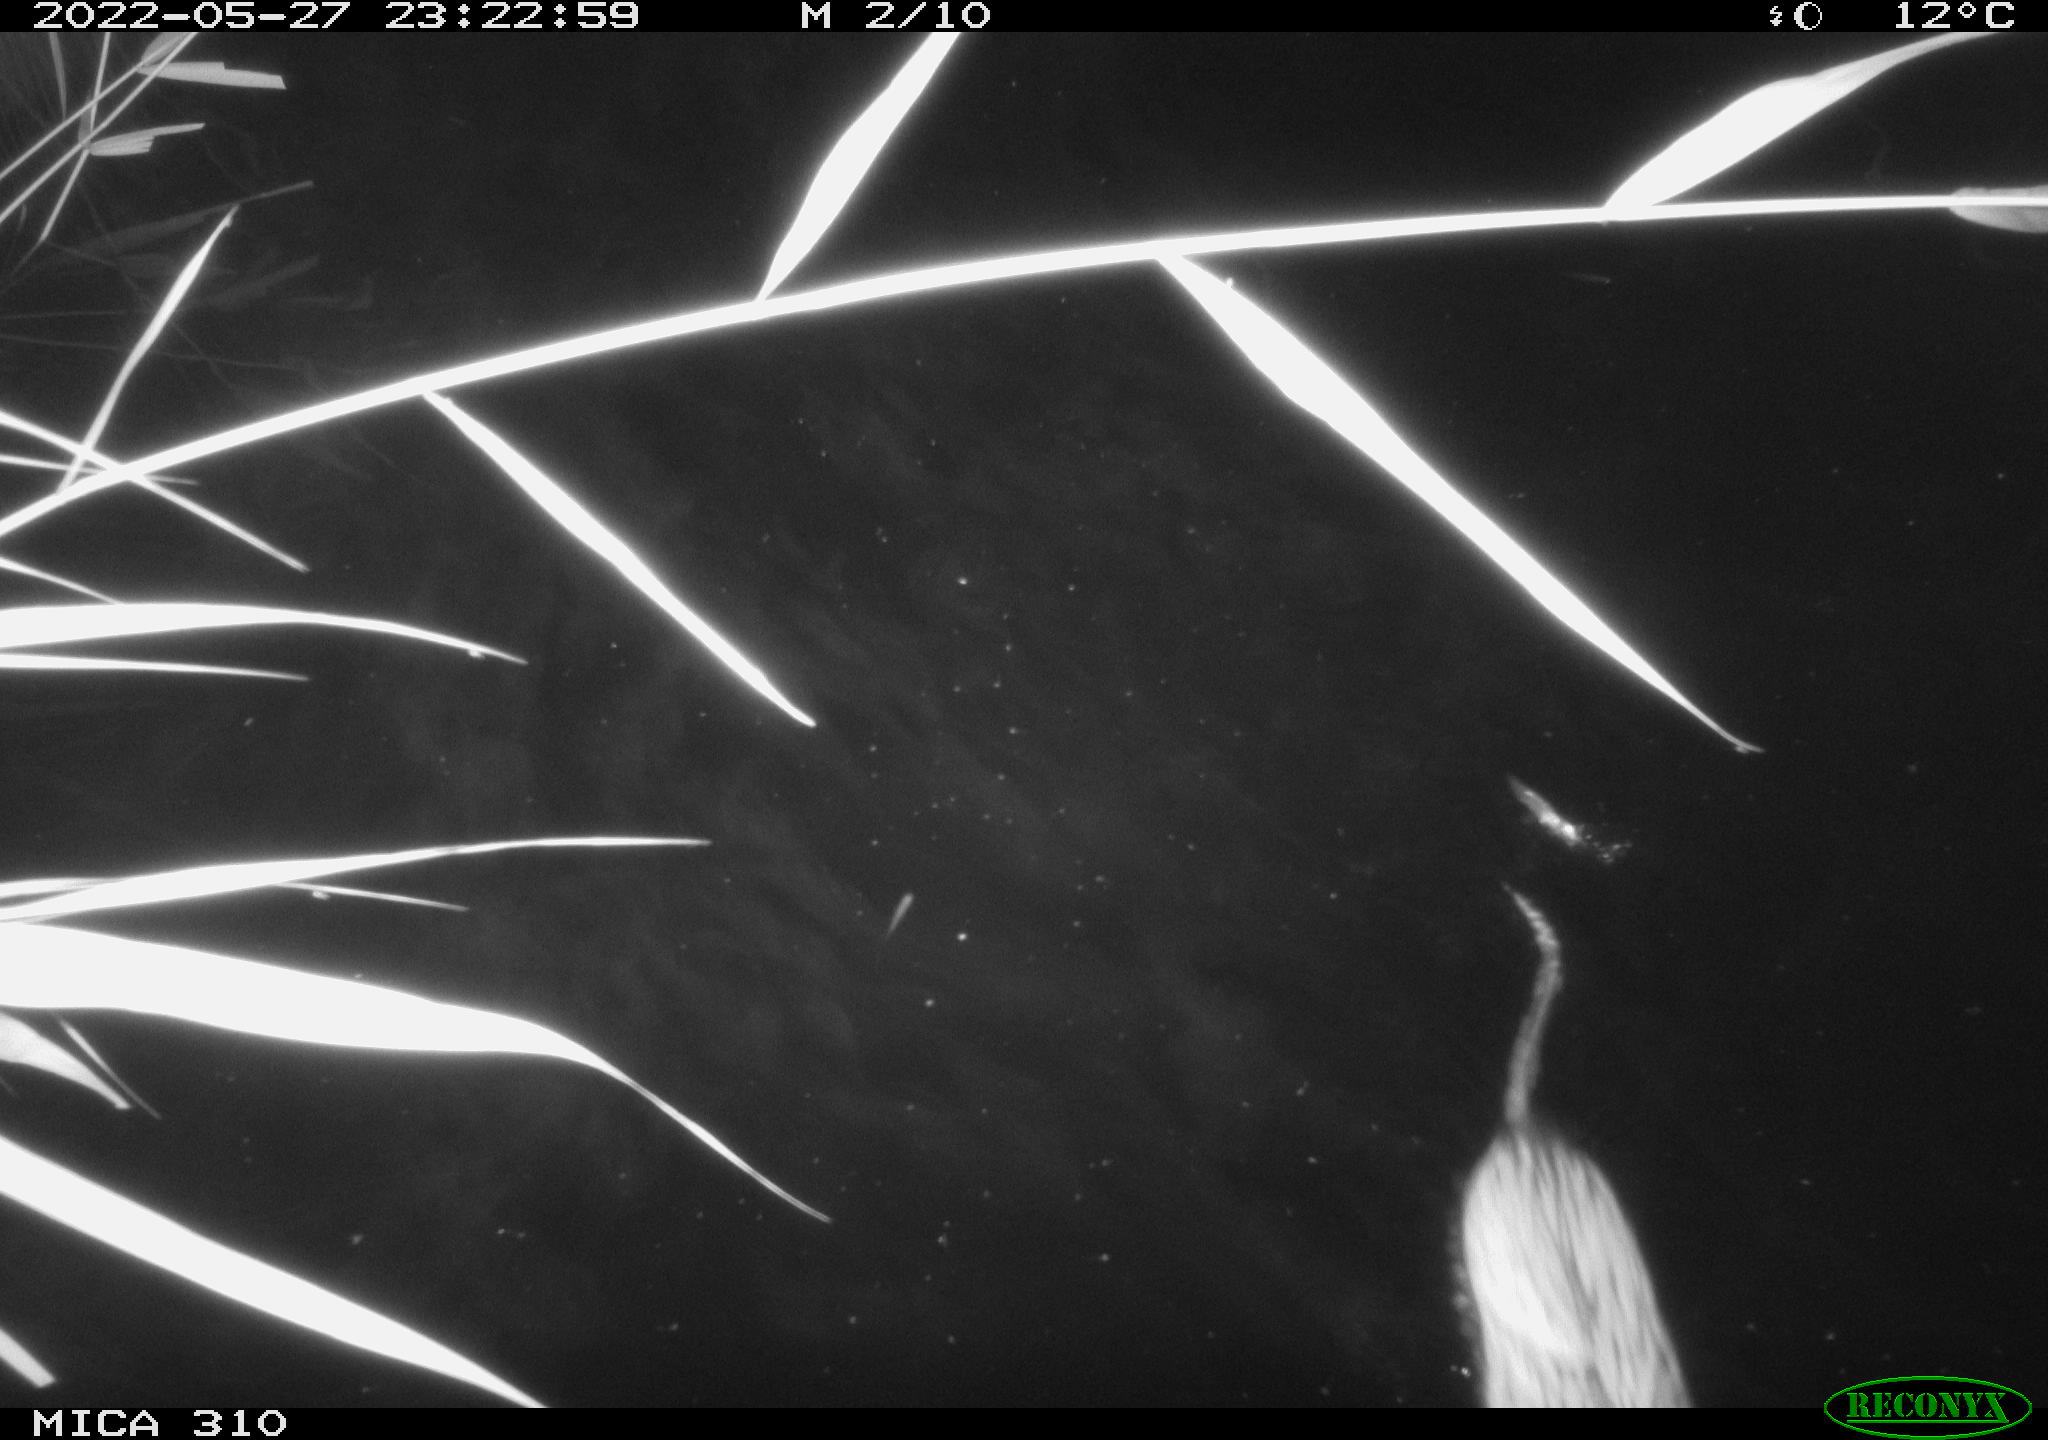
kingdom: Animalia
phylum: Chordata
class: Mammalia
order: Rodentia
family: Cricetidae
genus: Ondatra
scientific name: Ondatra zibethicus
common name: Muskrat
